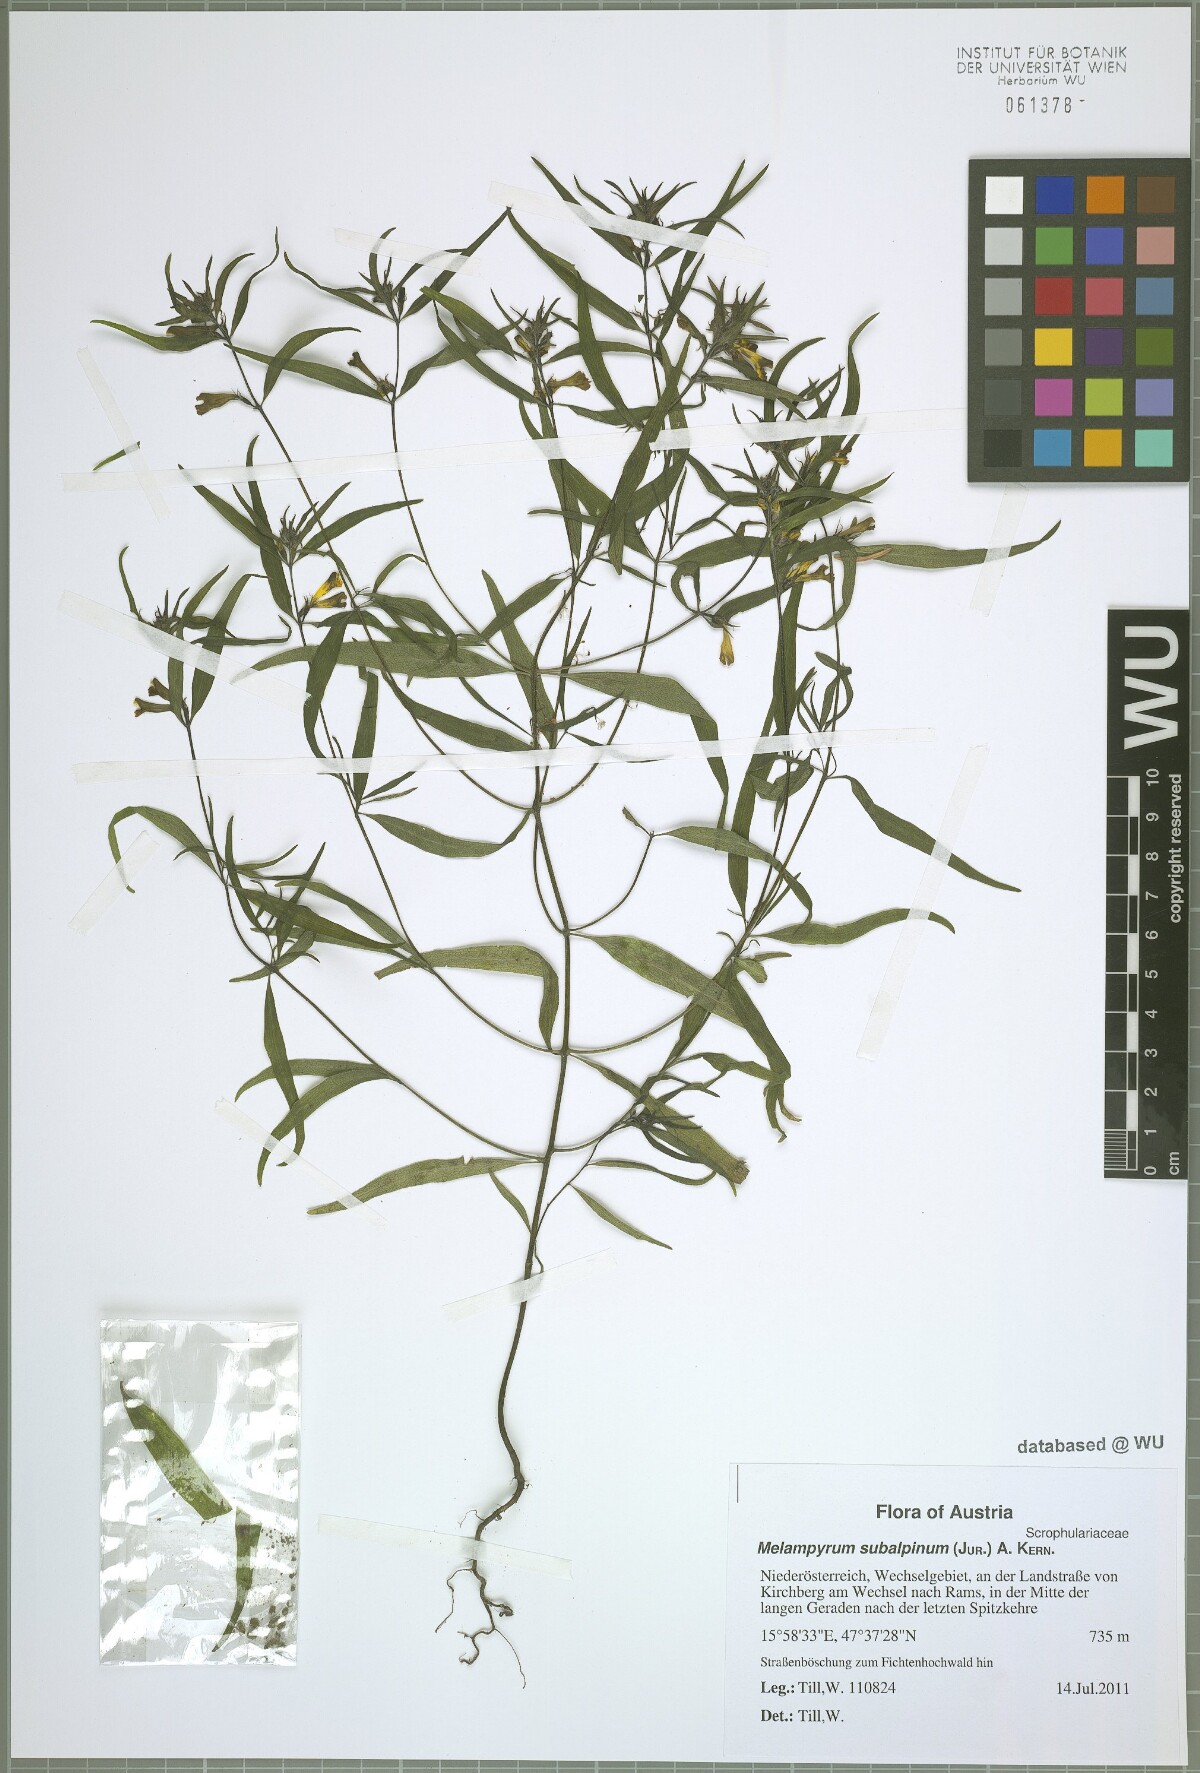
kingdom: Plantae
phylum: Tracheophyta
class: Magnoliopsida
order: Lamiales
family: Orobanchaceae
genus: Melampyrum
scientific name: Melampyrum subalpinum
